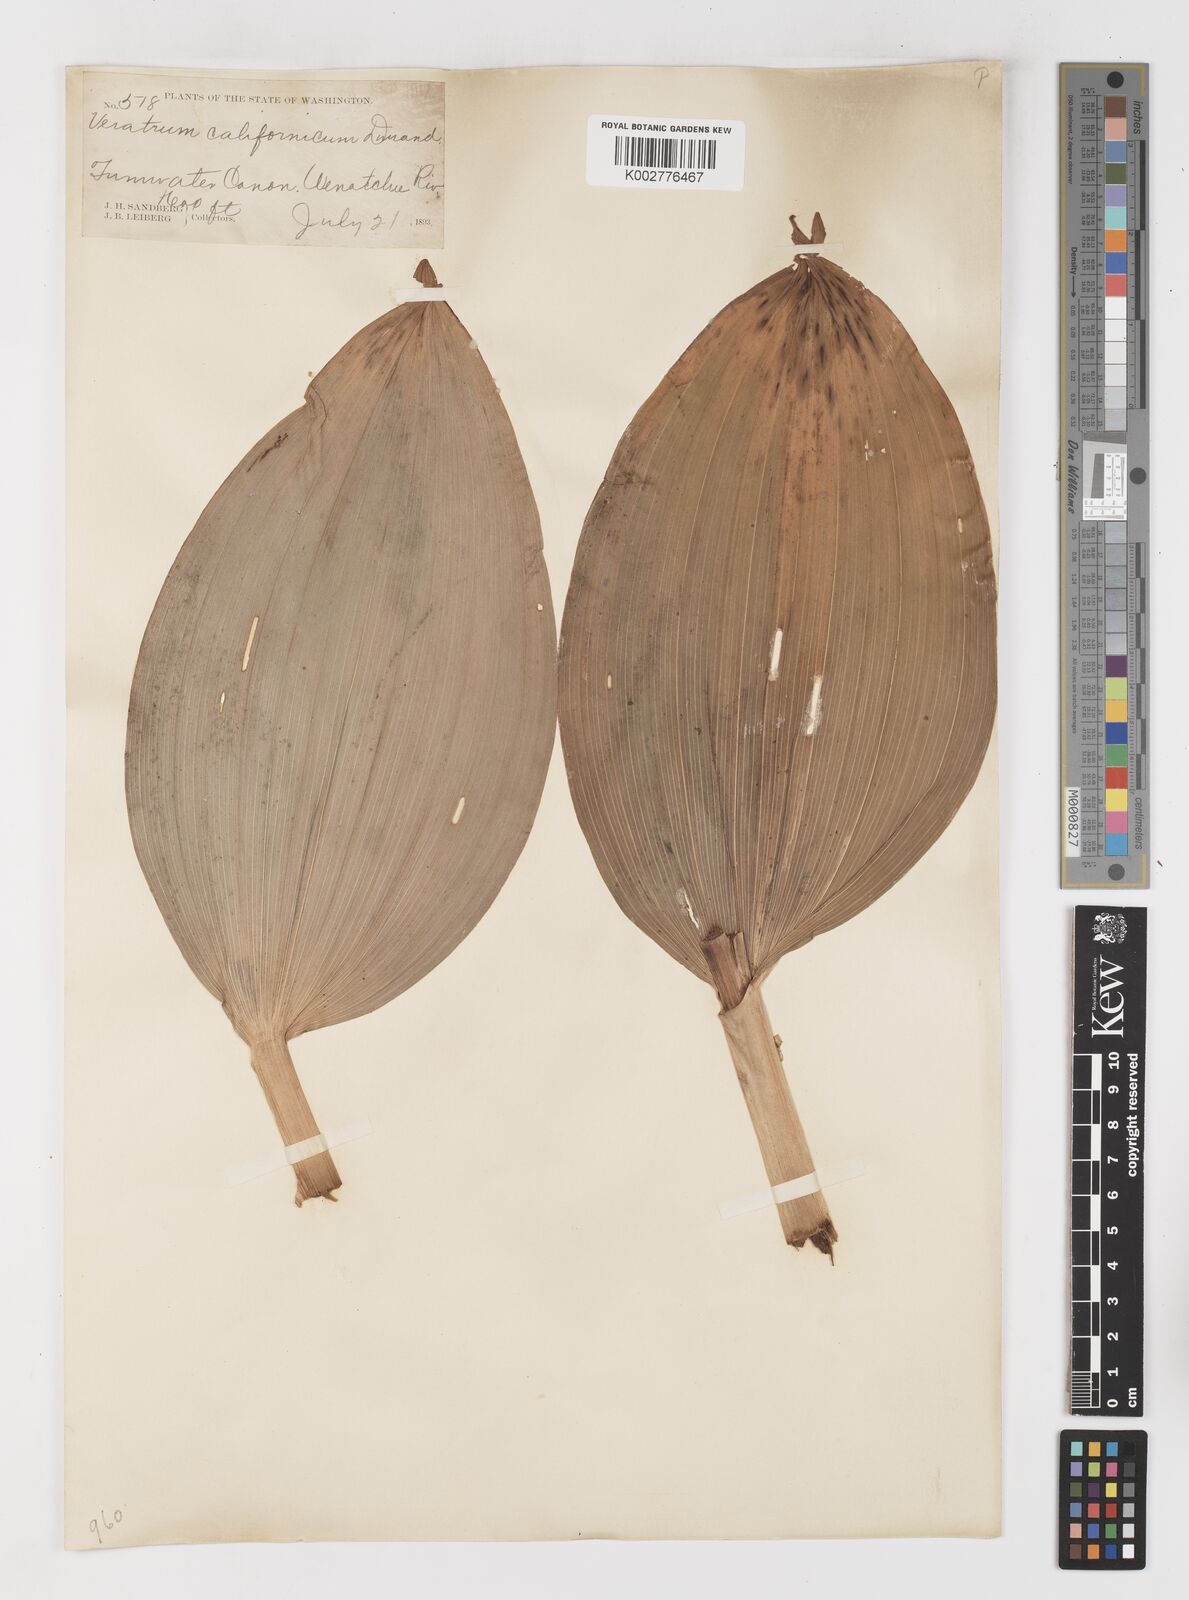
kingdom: Plantae
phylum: Tracheophyta
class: Liliopsida
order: Liliales
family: Melanthiaceae
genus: Veratrum
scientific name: Veratrum californicum
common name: California veratrum
